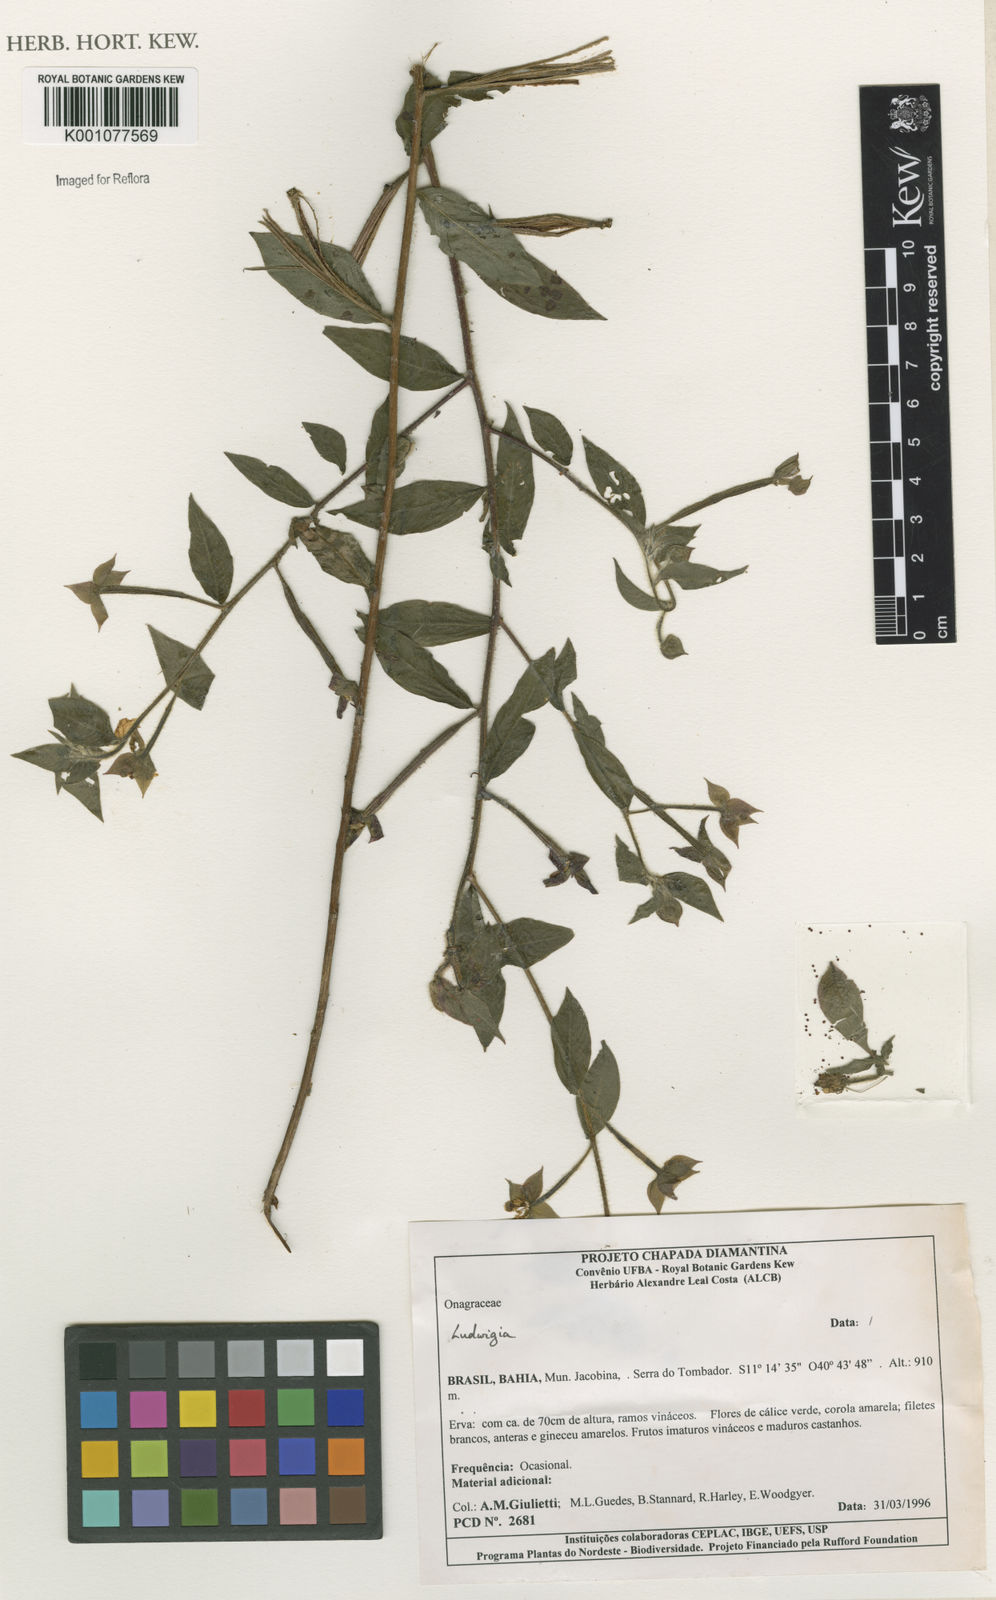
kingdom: Plantae
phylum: Tracheophyta
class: Magnoliopsida
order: Myrtales
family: Onagraceae
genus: Ludwigia
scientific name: Ludwigia
